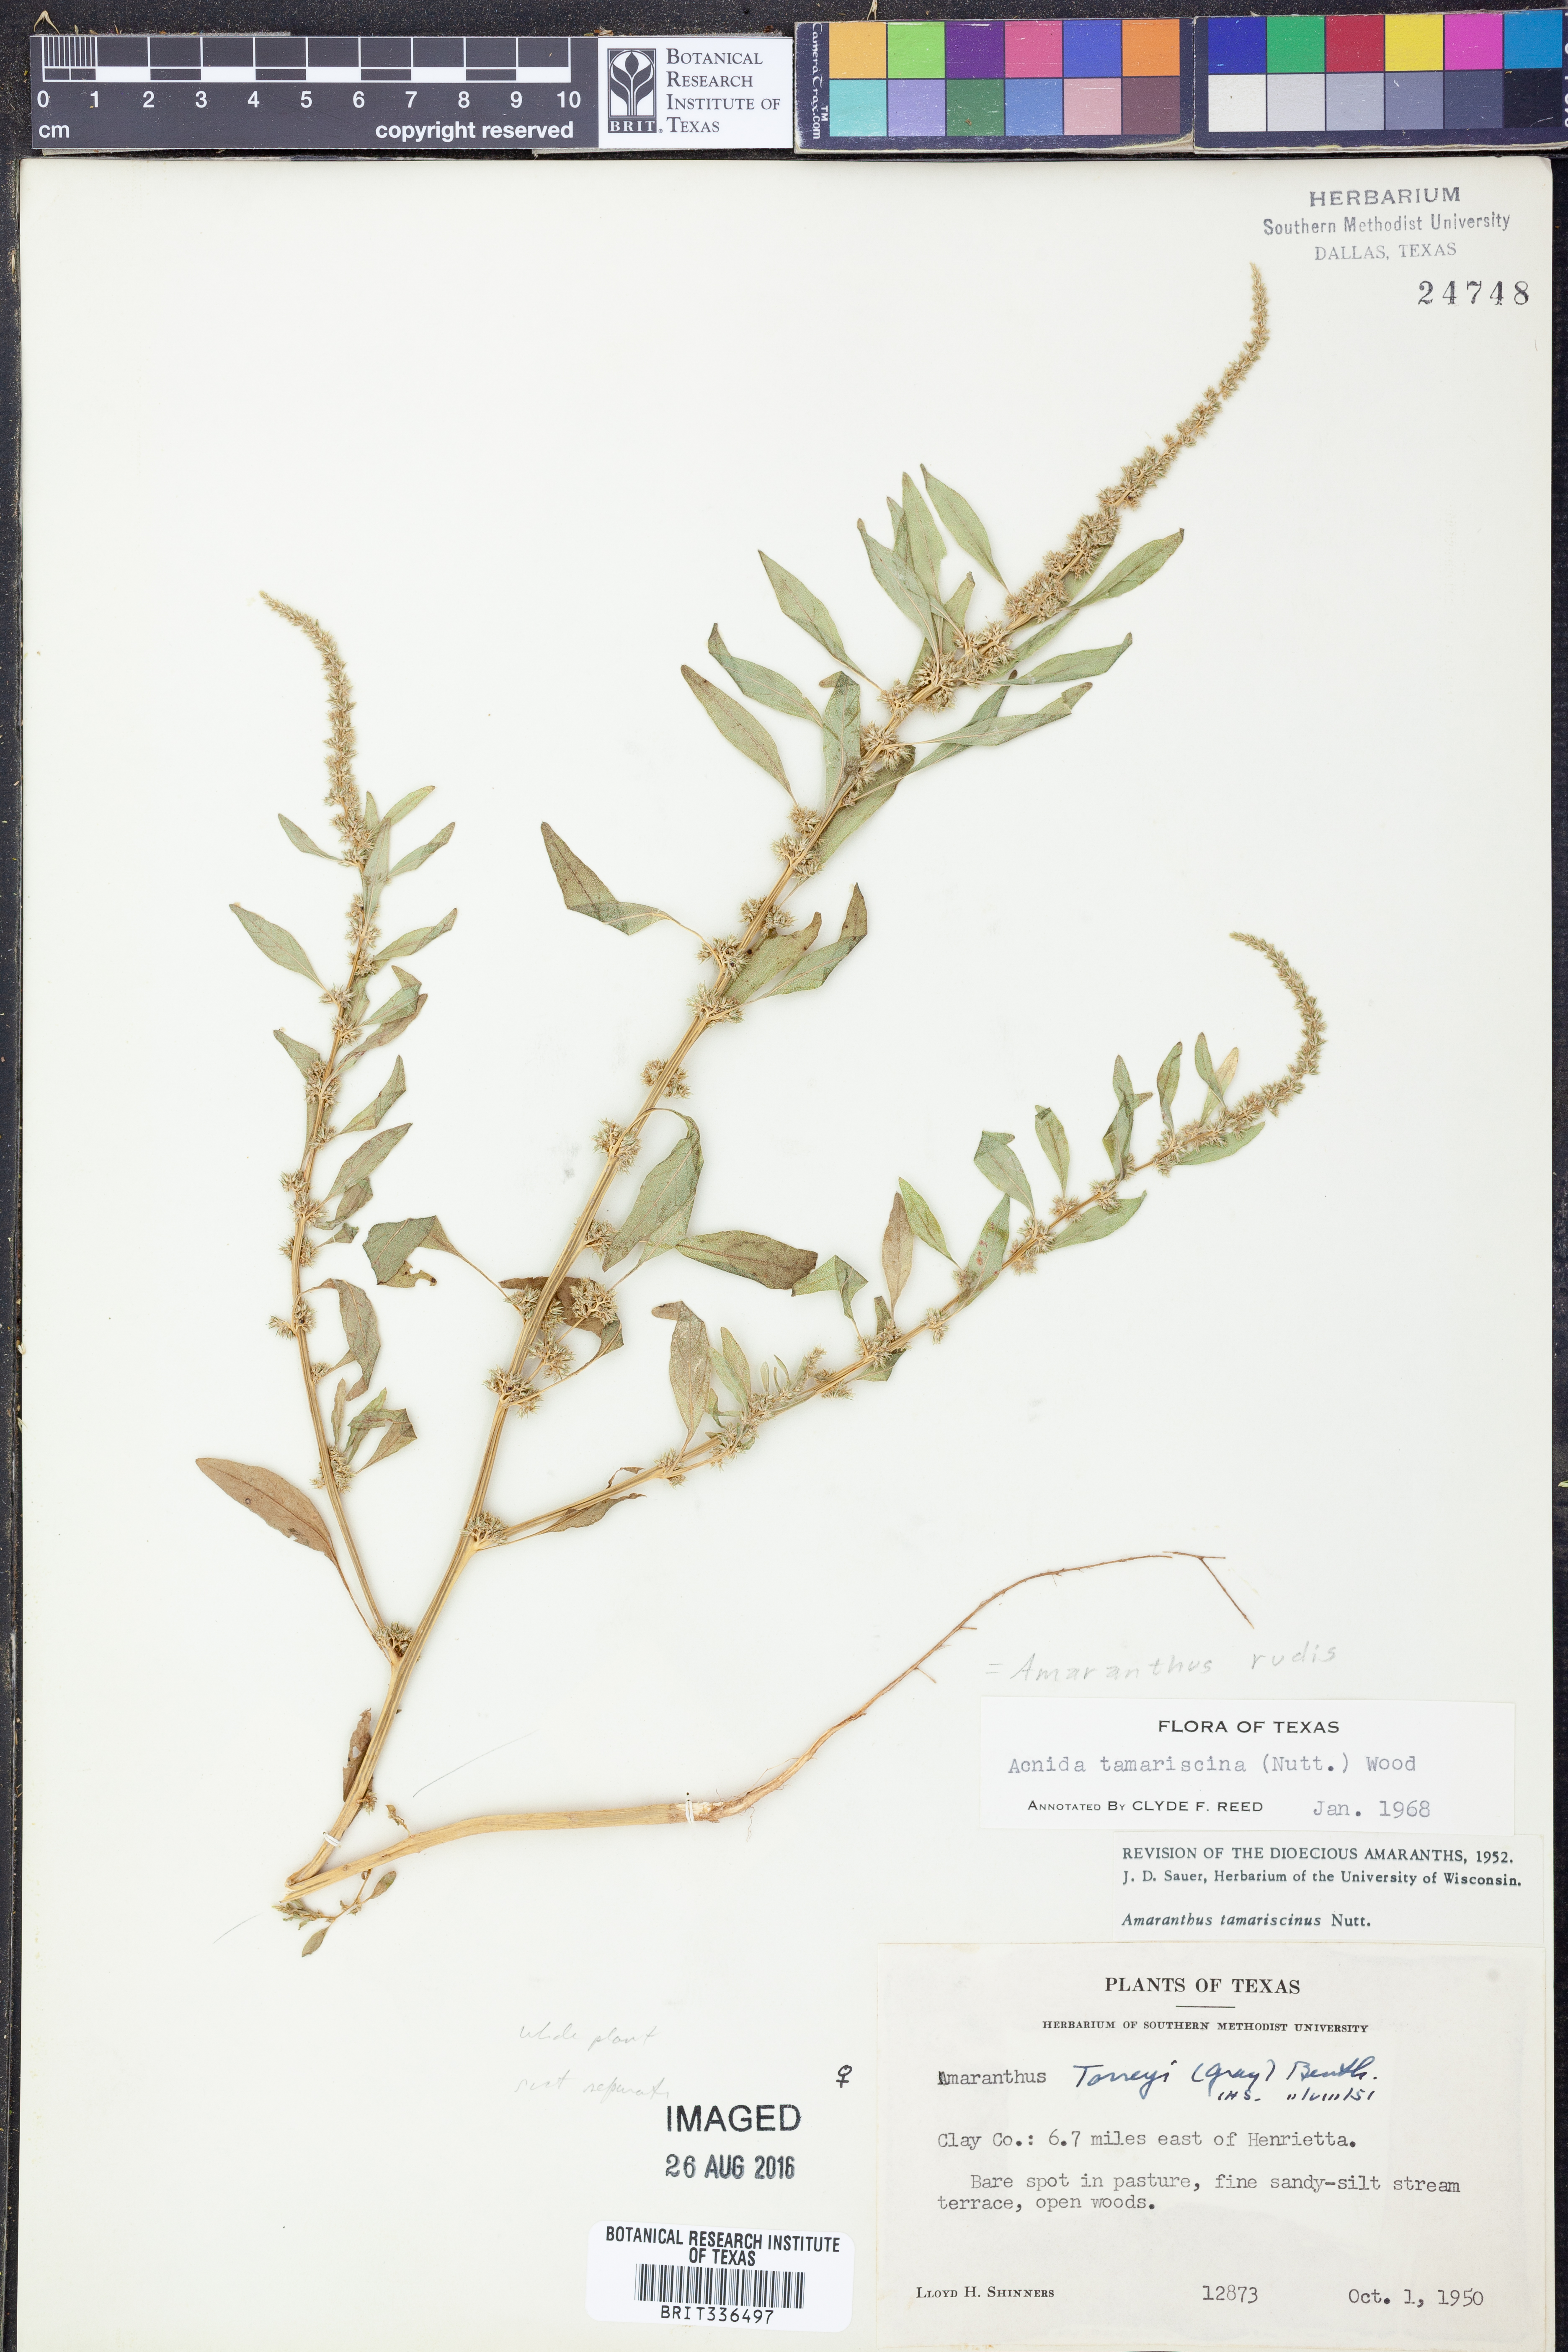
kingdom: Plantae
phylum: Tracheophyta
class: Magnoliopsida
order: Caryophyllales
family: Amaranthaceae
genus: Amaranthus
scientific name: Amaranthus tuberculatus
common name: Rough-fruit amaranth
